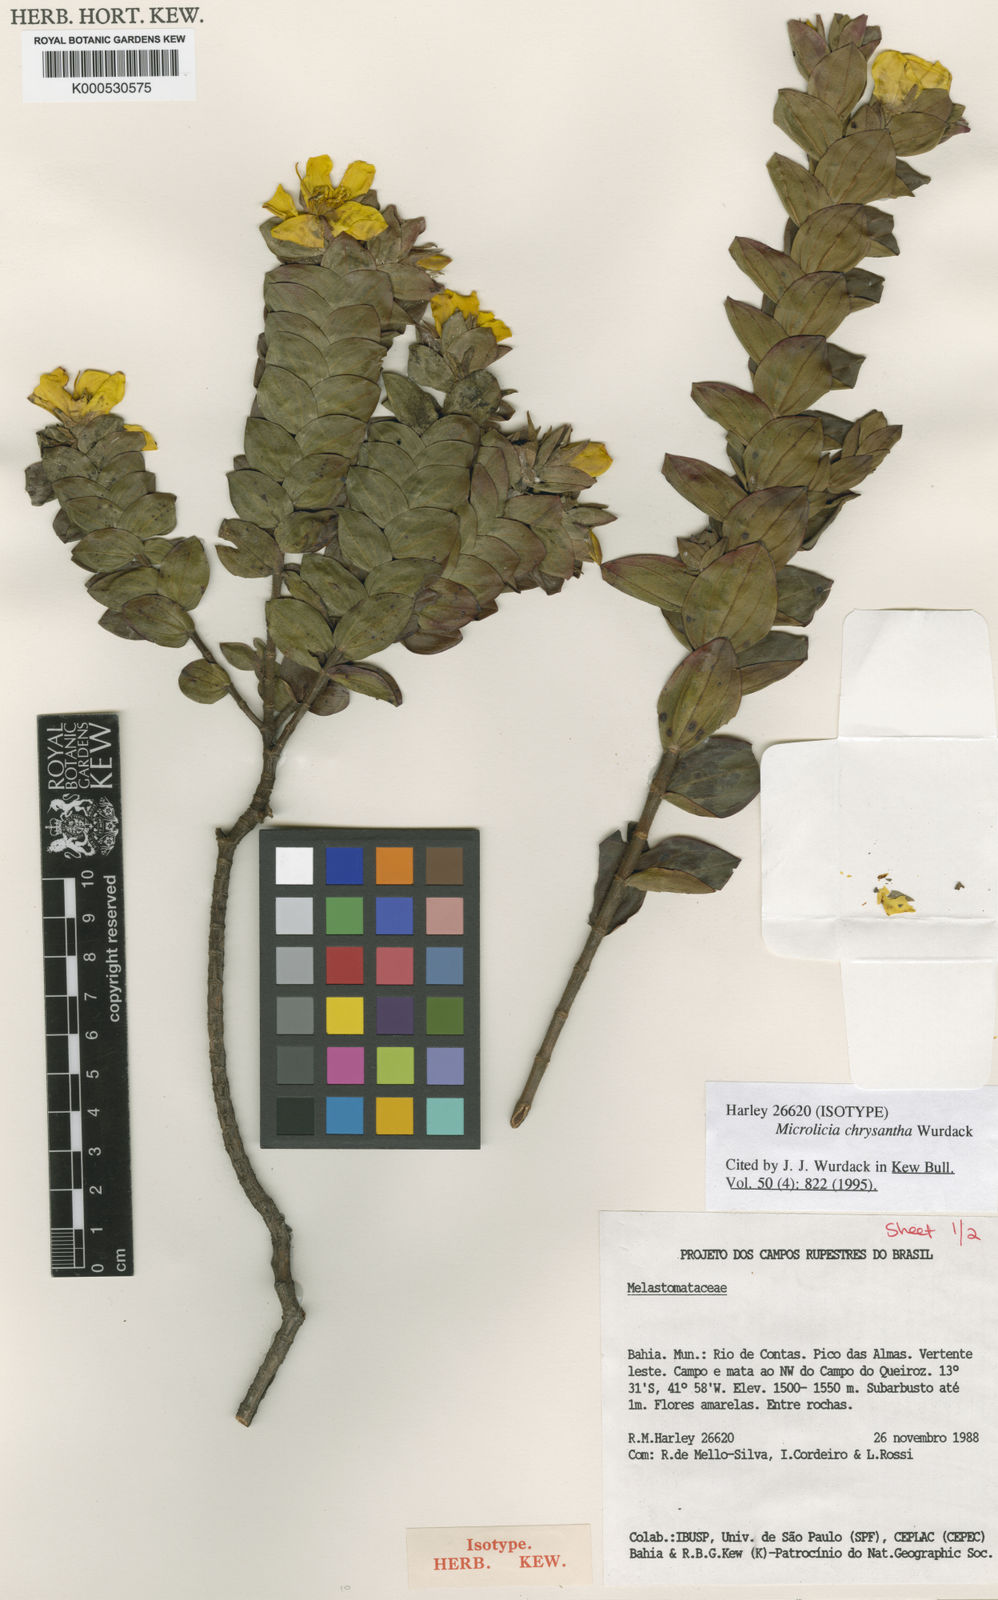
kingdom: Plantae
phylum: Tracheophyta
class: Magnoliopsida
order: Myrtales
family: Melastomataceae
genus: Microlicia
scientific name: Microlicia chrysantha
